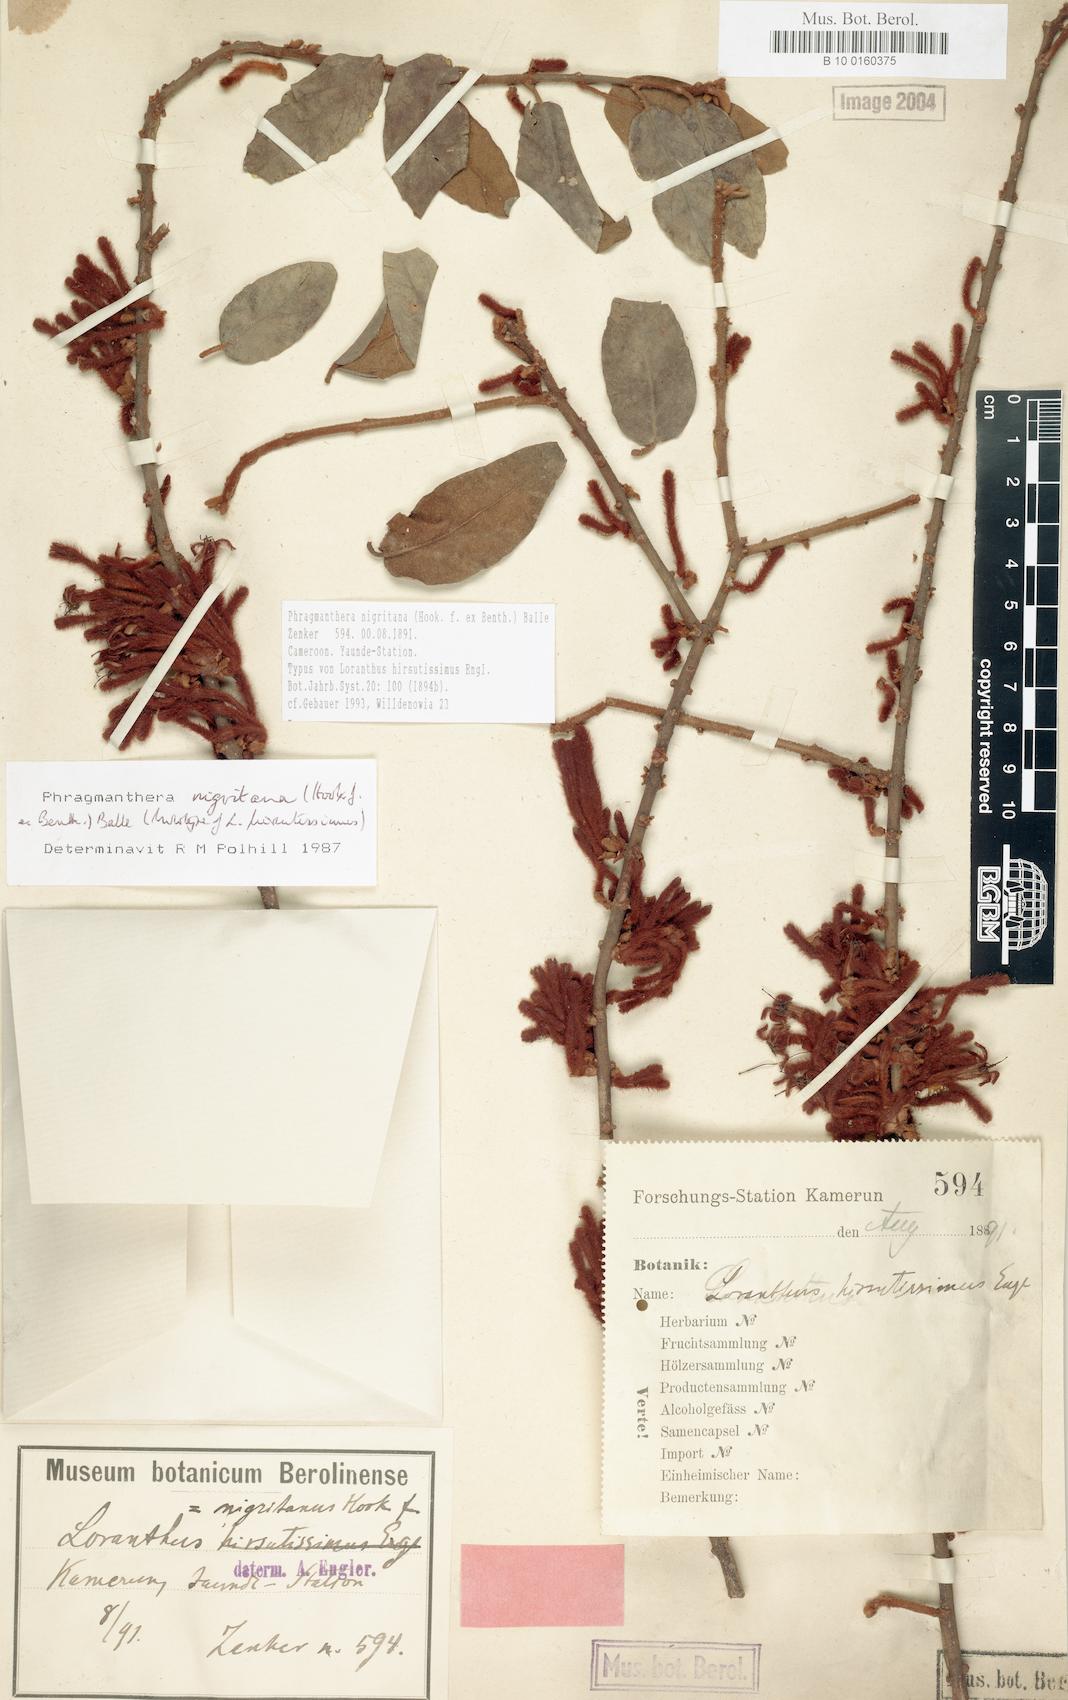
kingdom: Plantae
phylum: Tracheophyta
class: Magnoliopsida
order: Santalales
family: Loranthaceae
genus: Phragmanthera
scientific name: Phragmanthera nigritana
